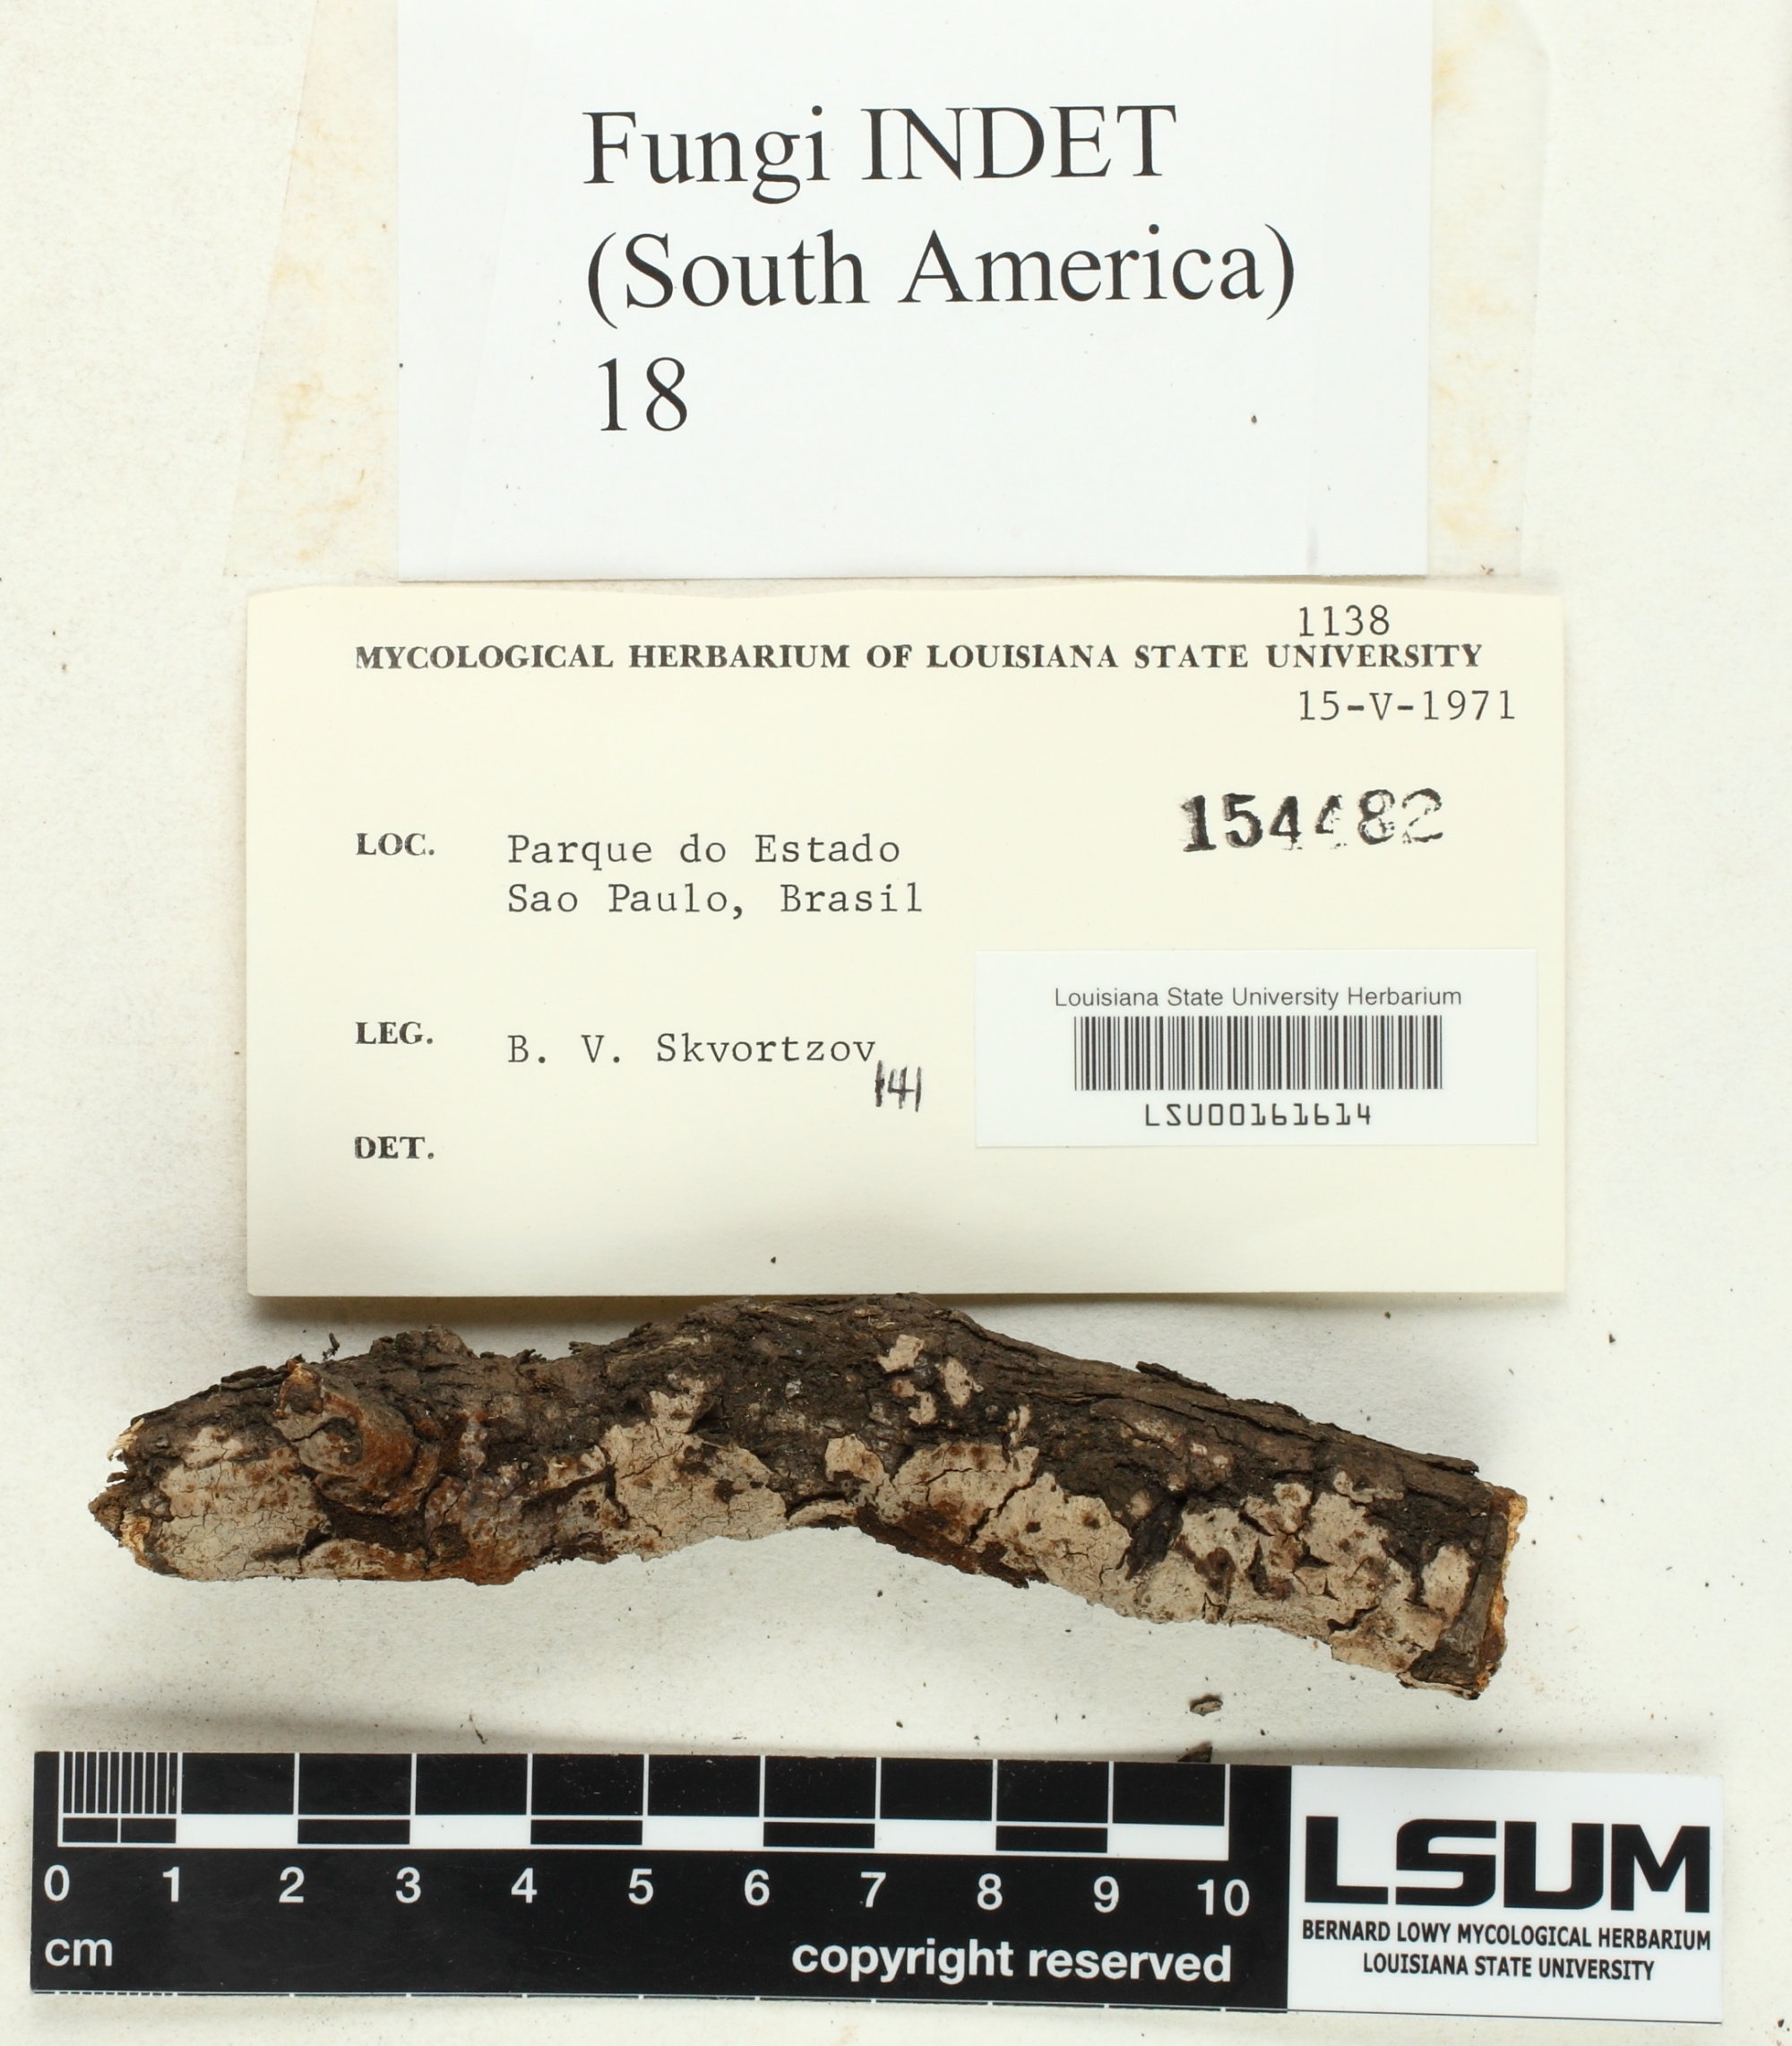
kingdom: Fungi
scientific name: Fungi
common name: Fungi
